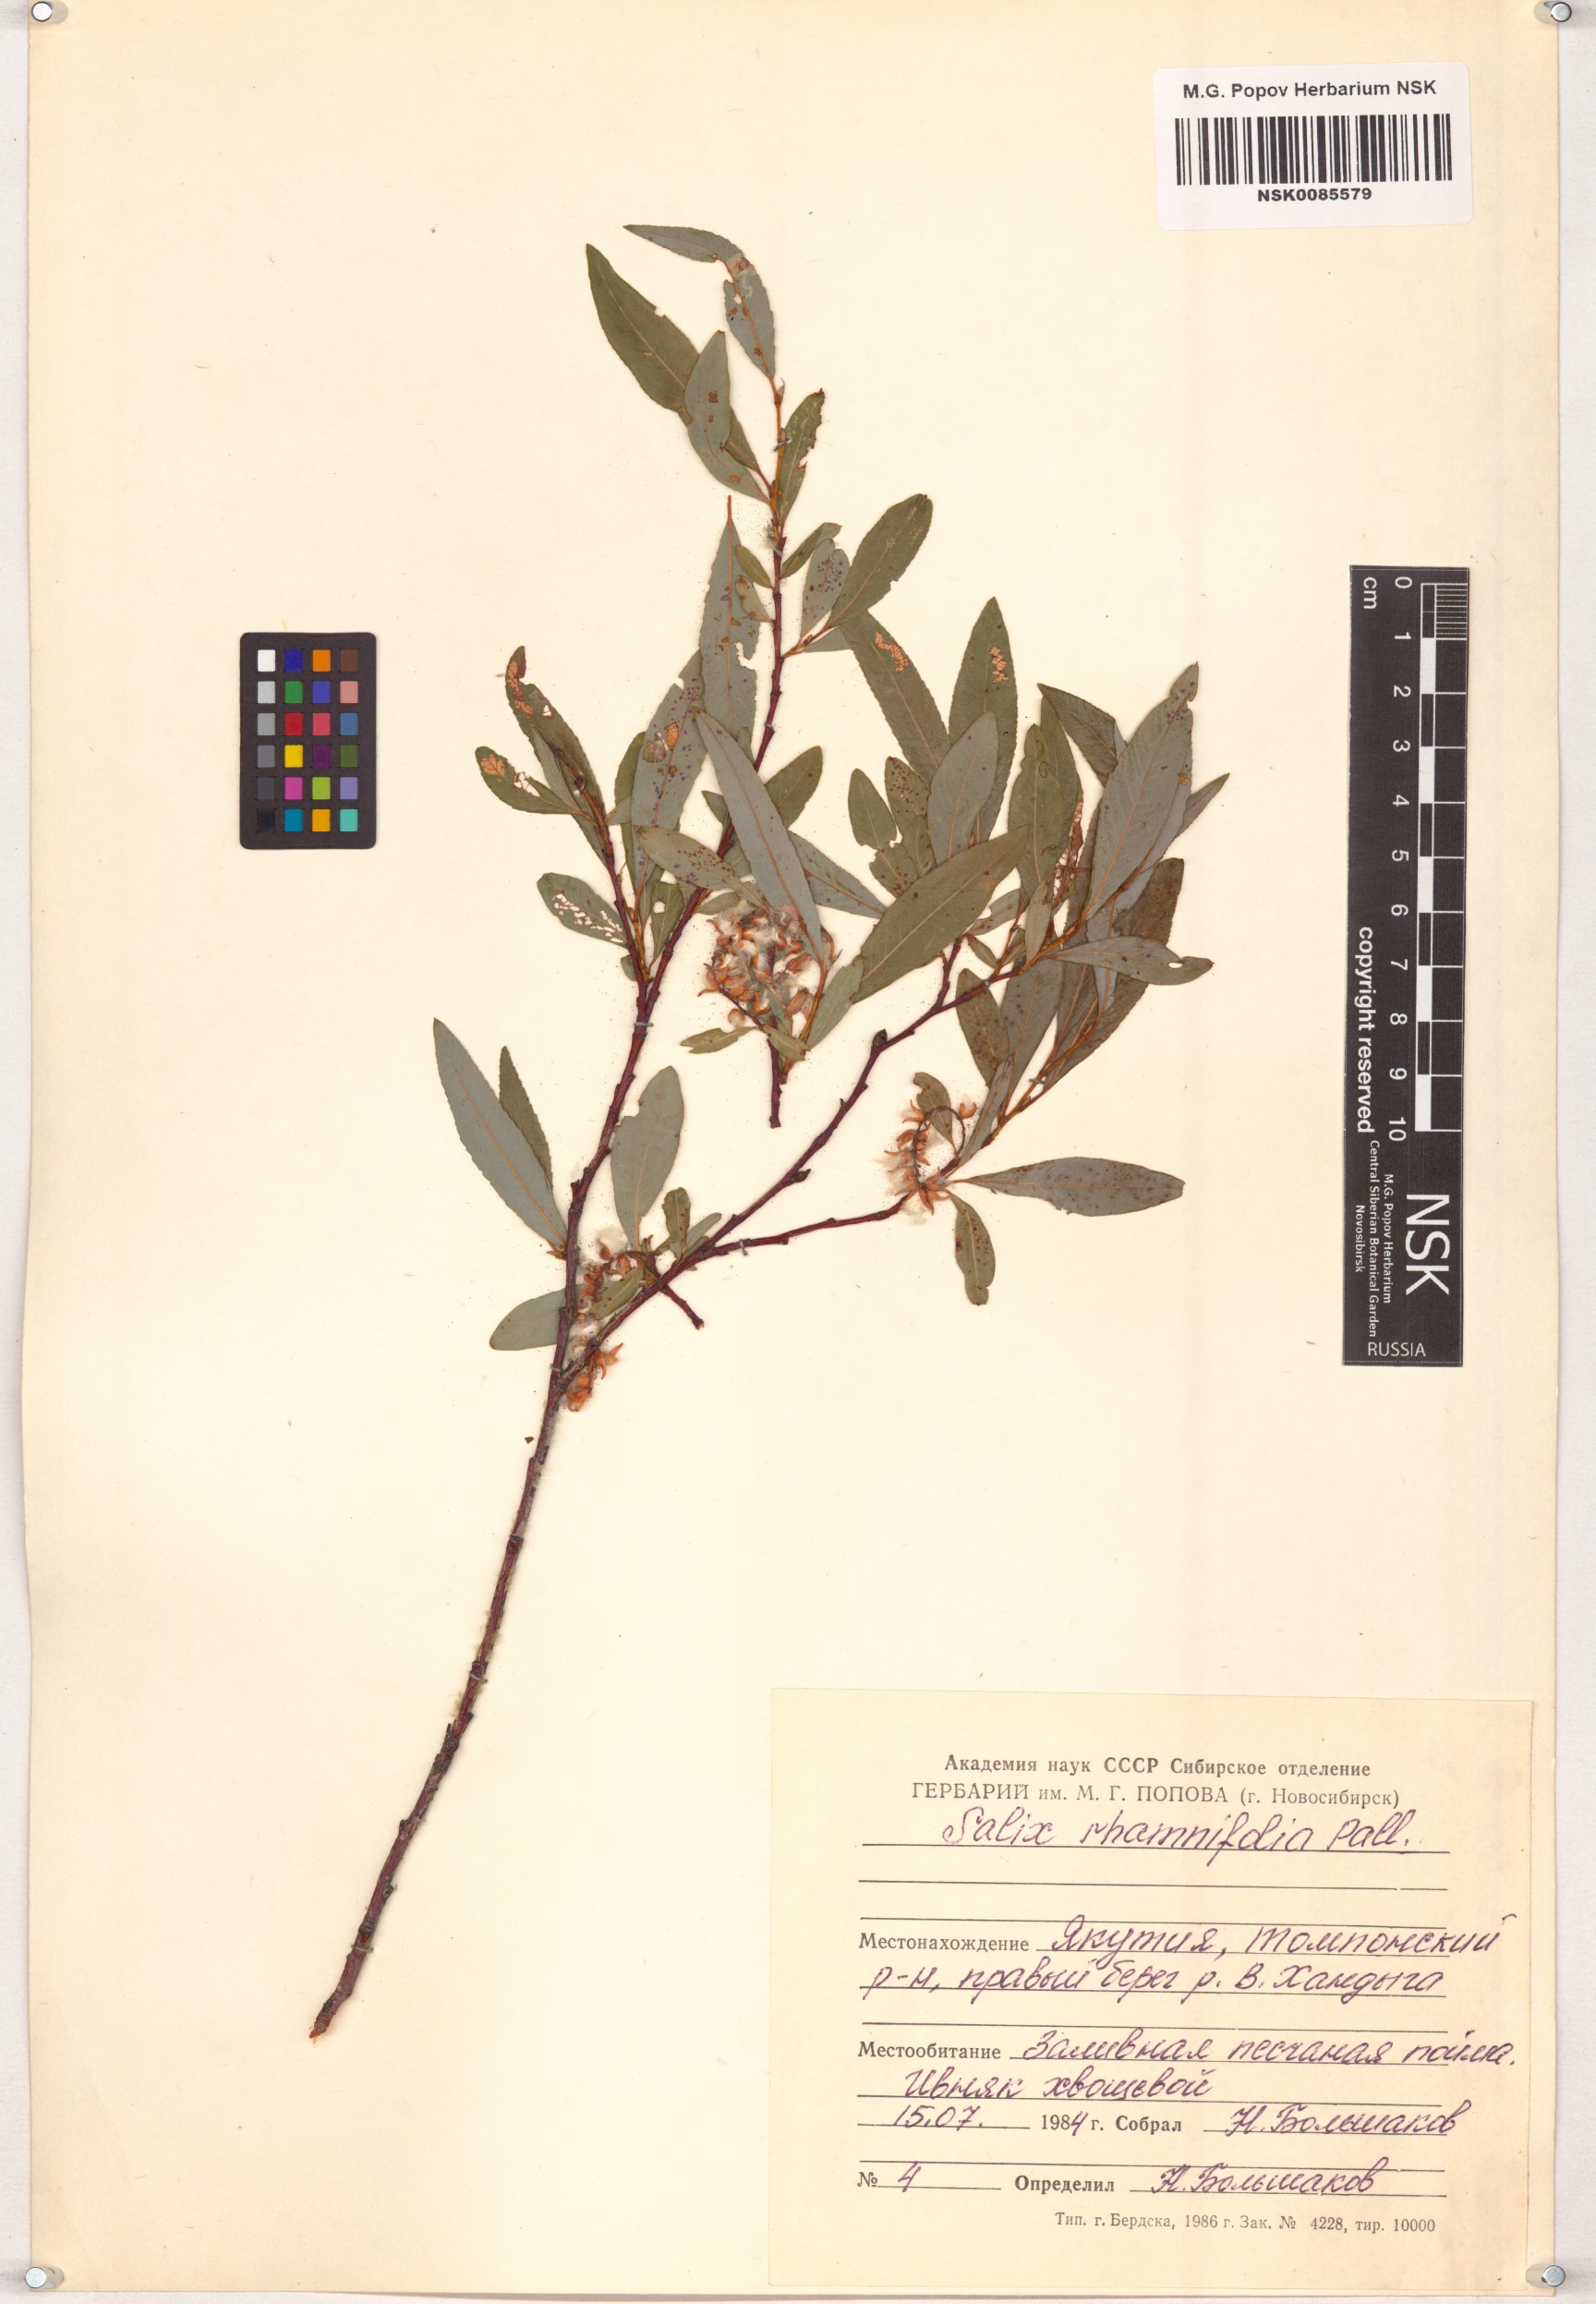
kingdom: Plantae
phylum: Tracheophyta
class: Magnoliopsida
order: Malpighiales
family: Salicaceae
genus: Salix
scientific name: Salix rhamnifolia
